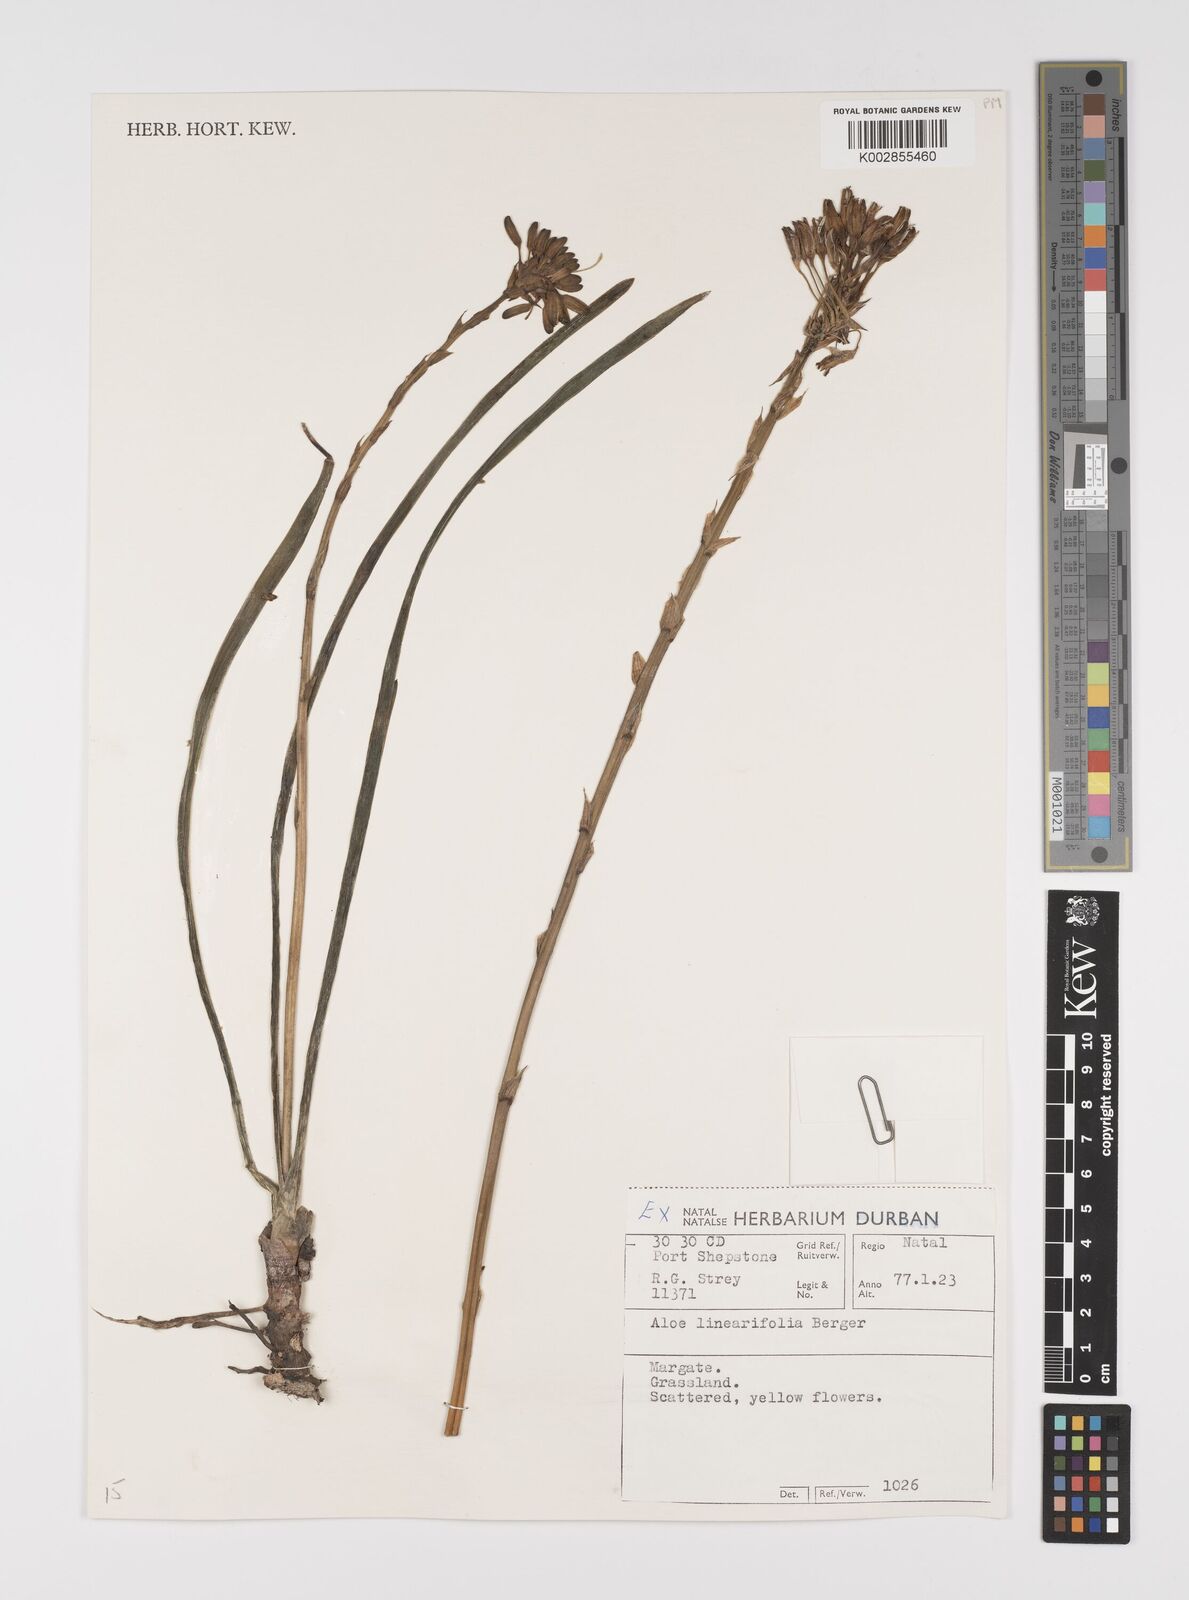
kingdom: Plantae
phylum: Tracheophyta
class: Liliopsida
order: Asparagales
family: Asphodelaceae
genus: Aloe
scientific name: Aloe linearifolia
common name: Dwarf yellow grass aloe
